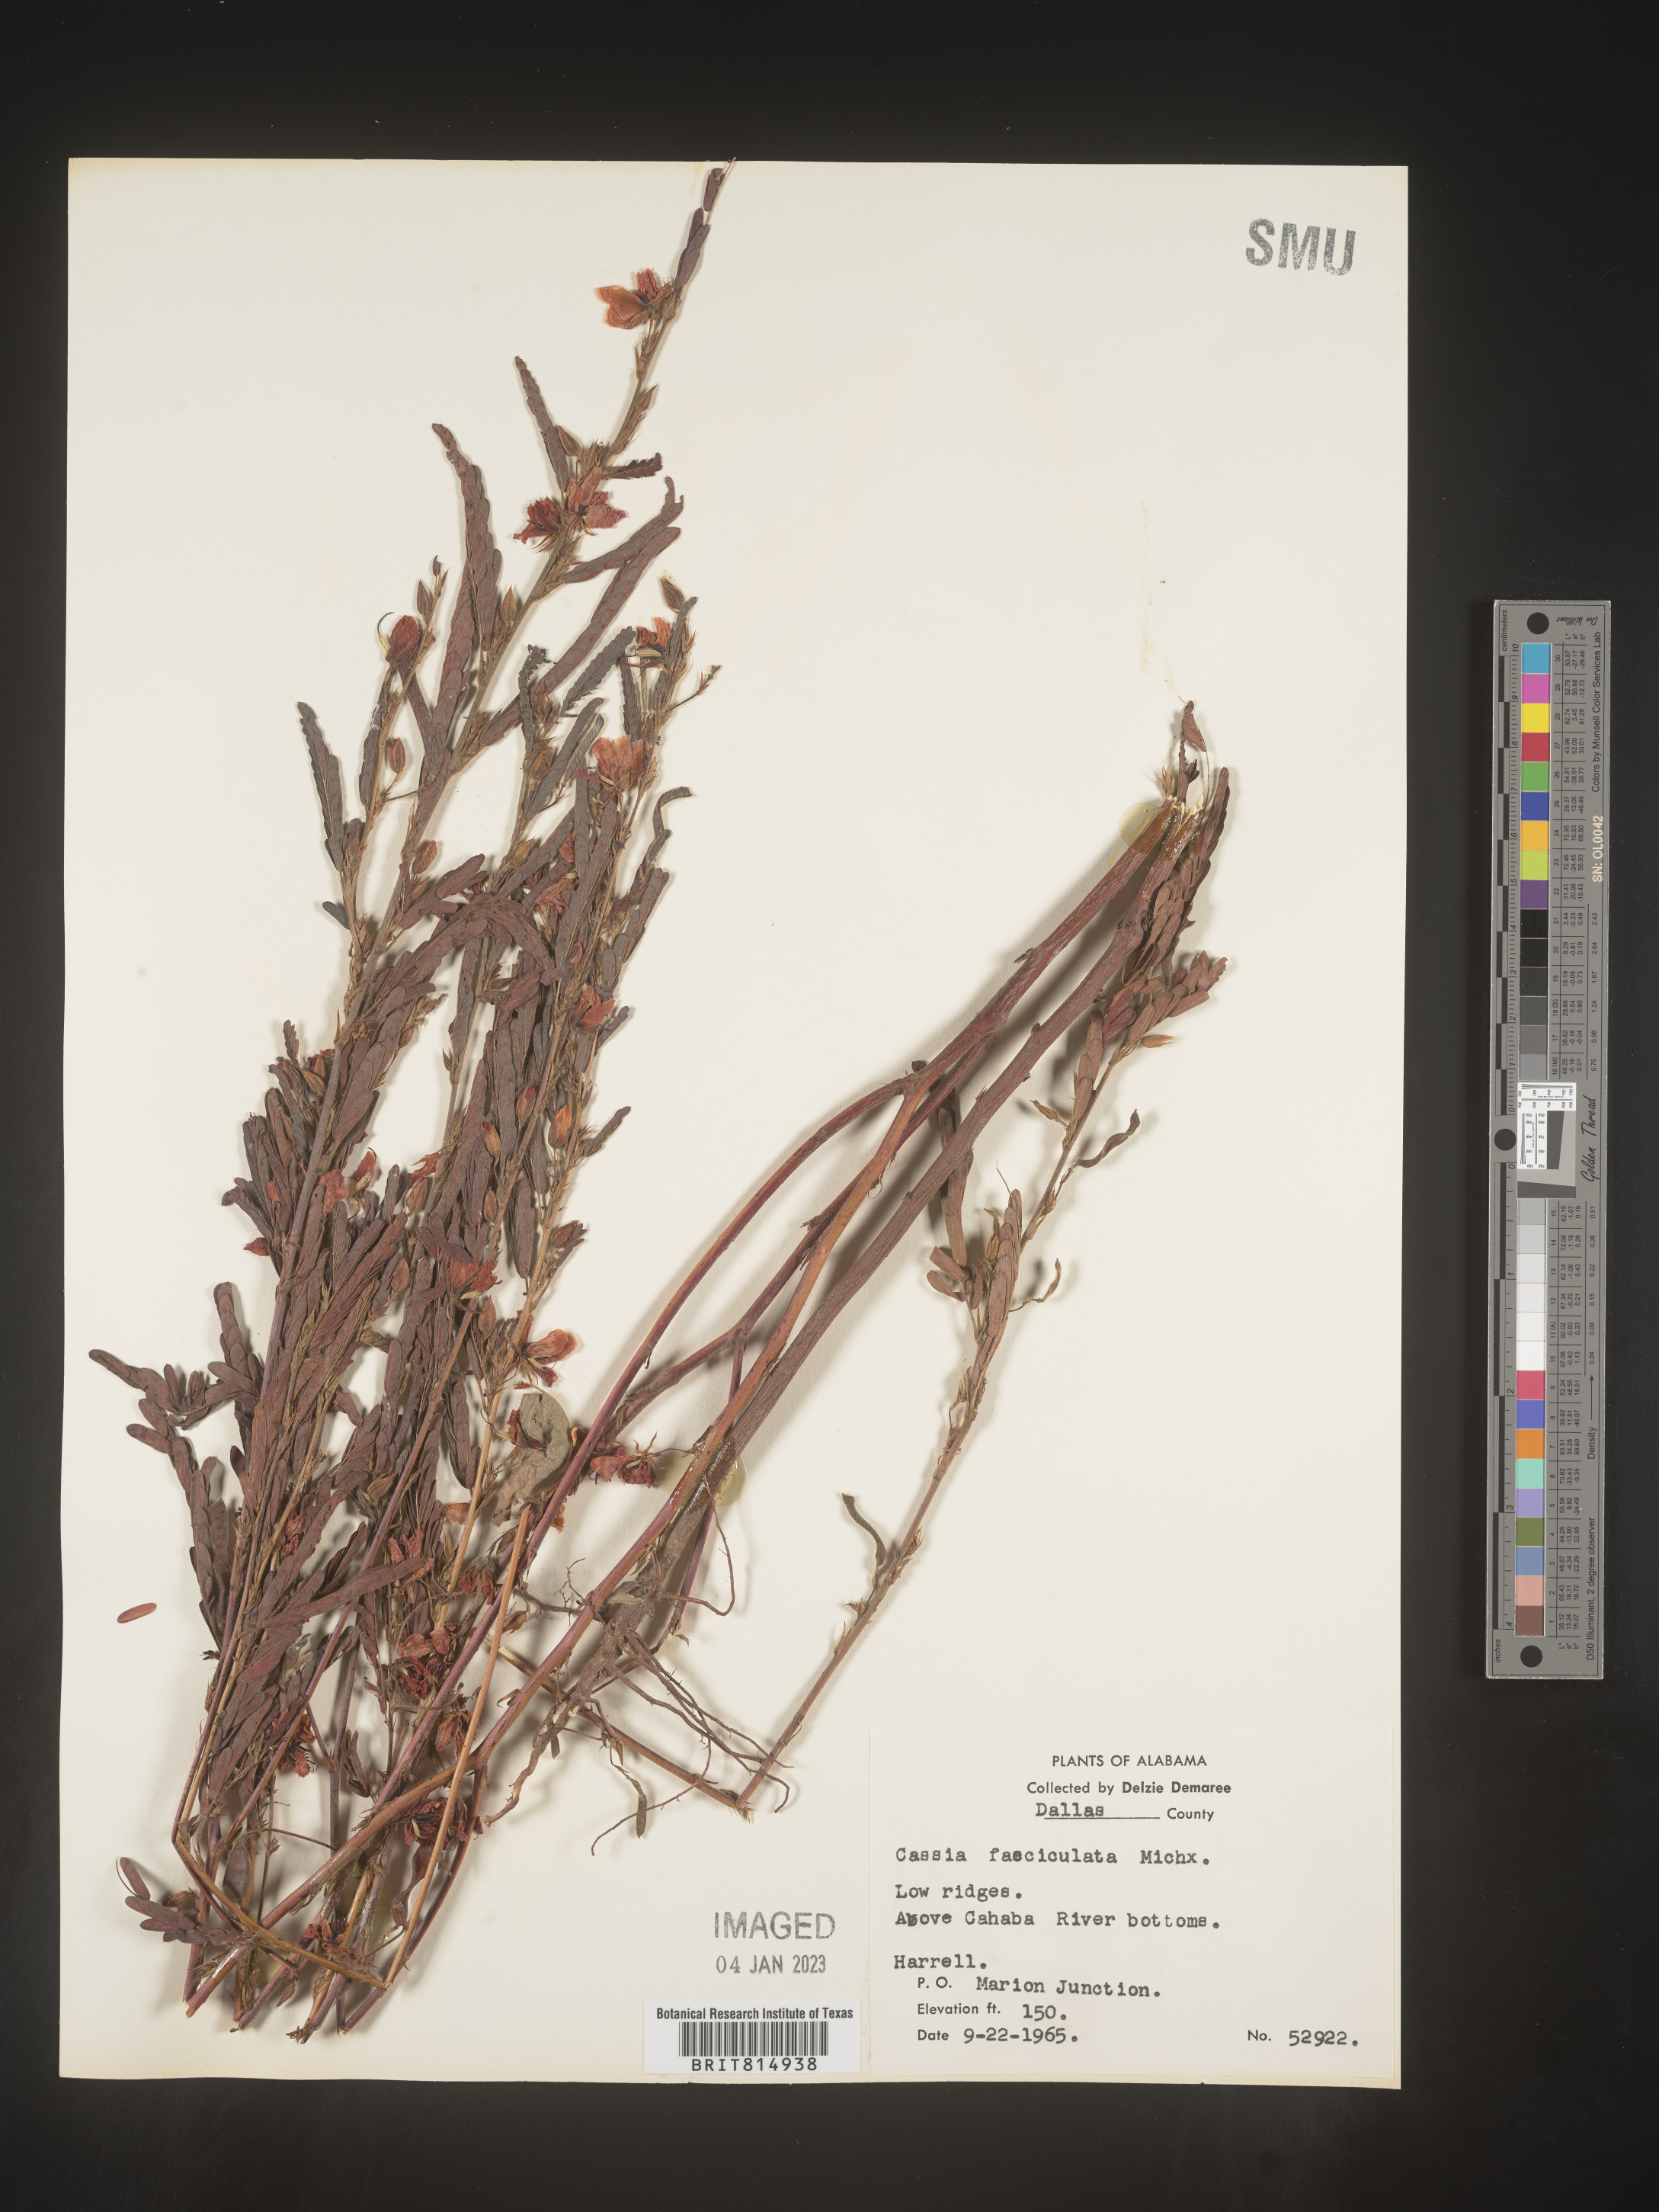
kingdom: Plantae
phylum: Tracheophyta
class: Magnoliopsida
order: Fabales
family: Fabaceae
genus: Chamaecrista
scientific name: Chamaecrista fasciculata
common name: Golden cassia
